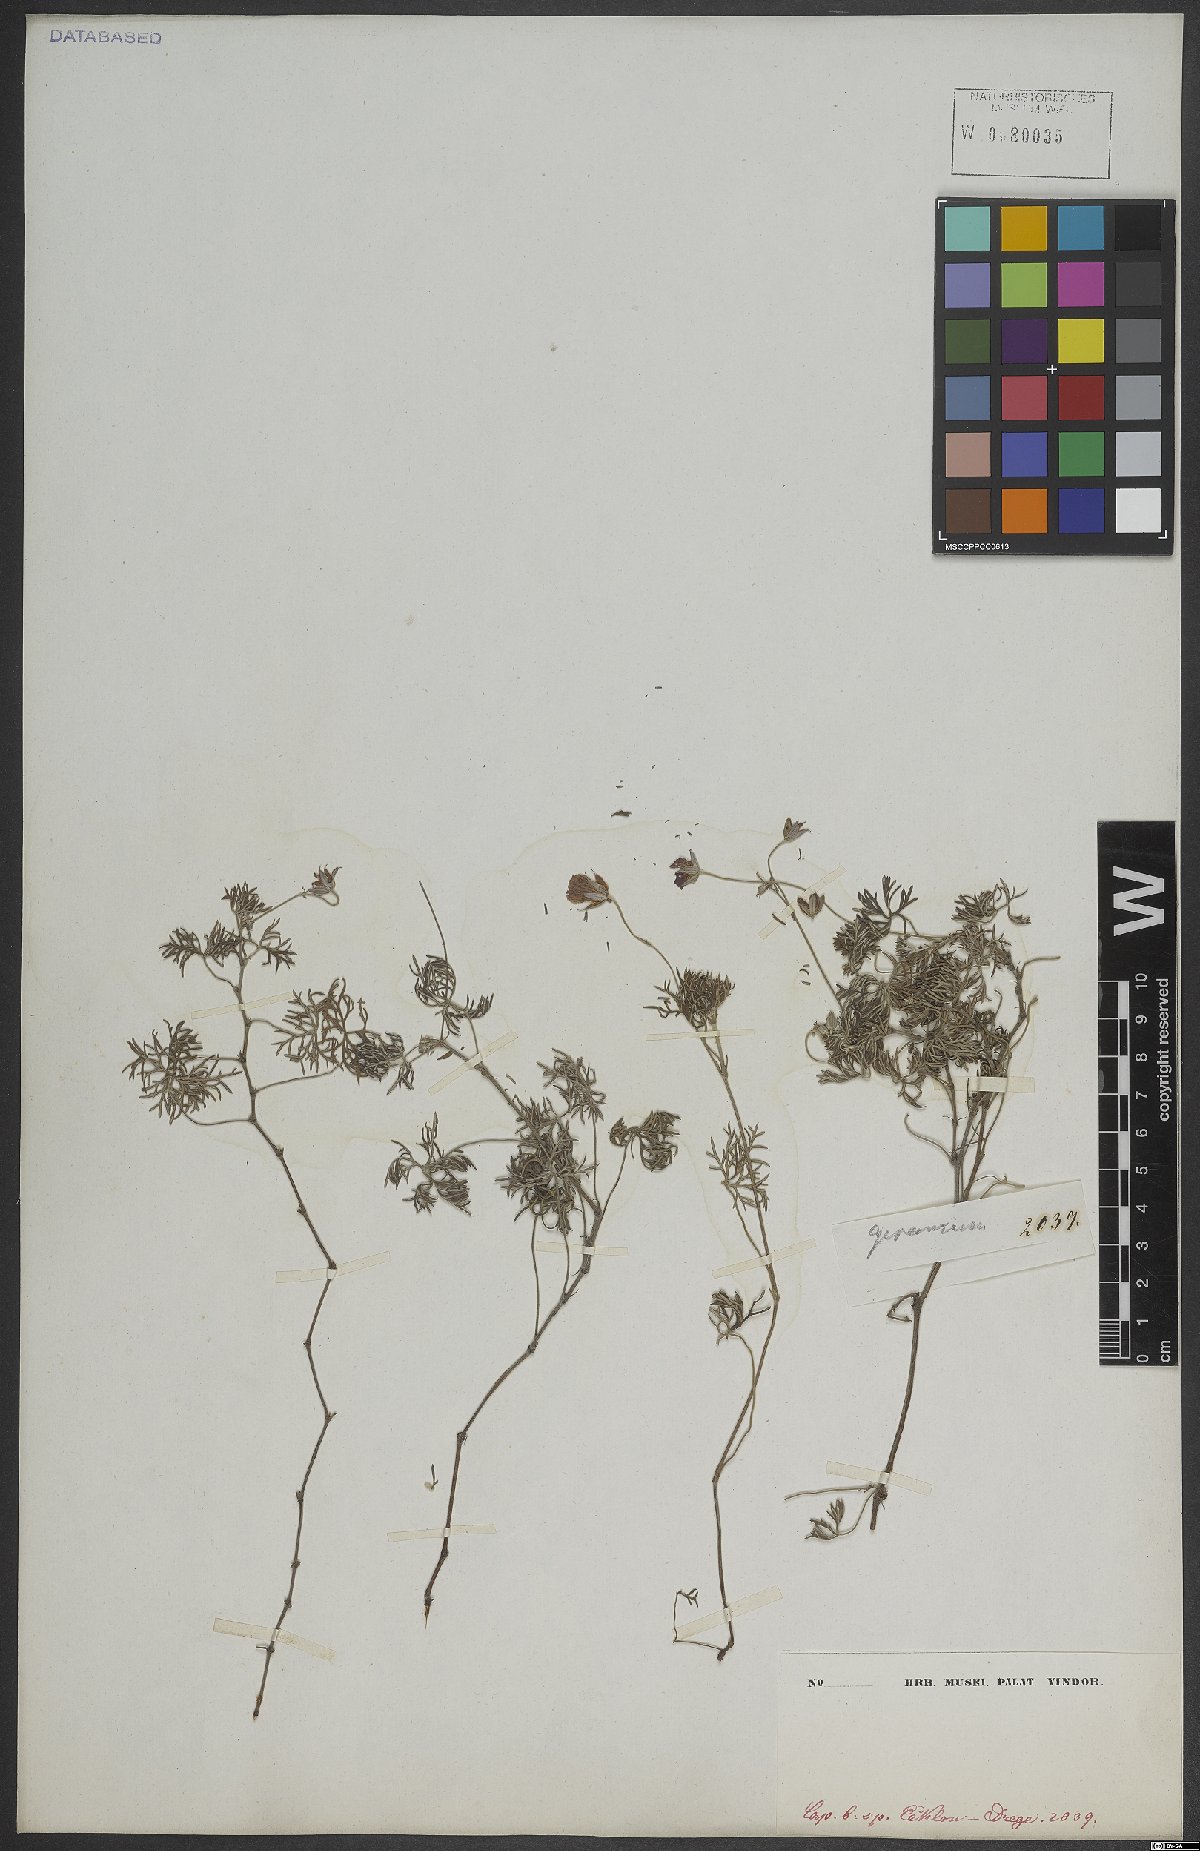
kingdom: Plantae
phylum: Tracheophyta
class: Magnoliopsida
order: Geraniales
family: Geraniaceae
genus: Geranium
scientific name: Geranium incanum
